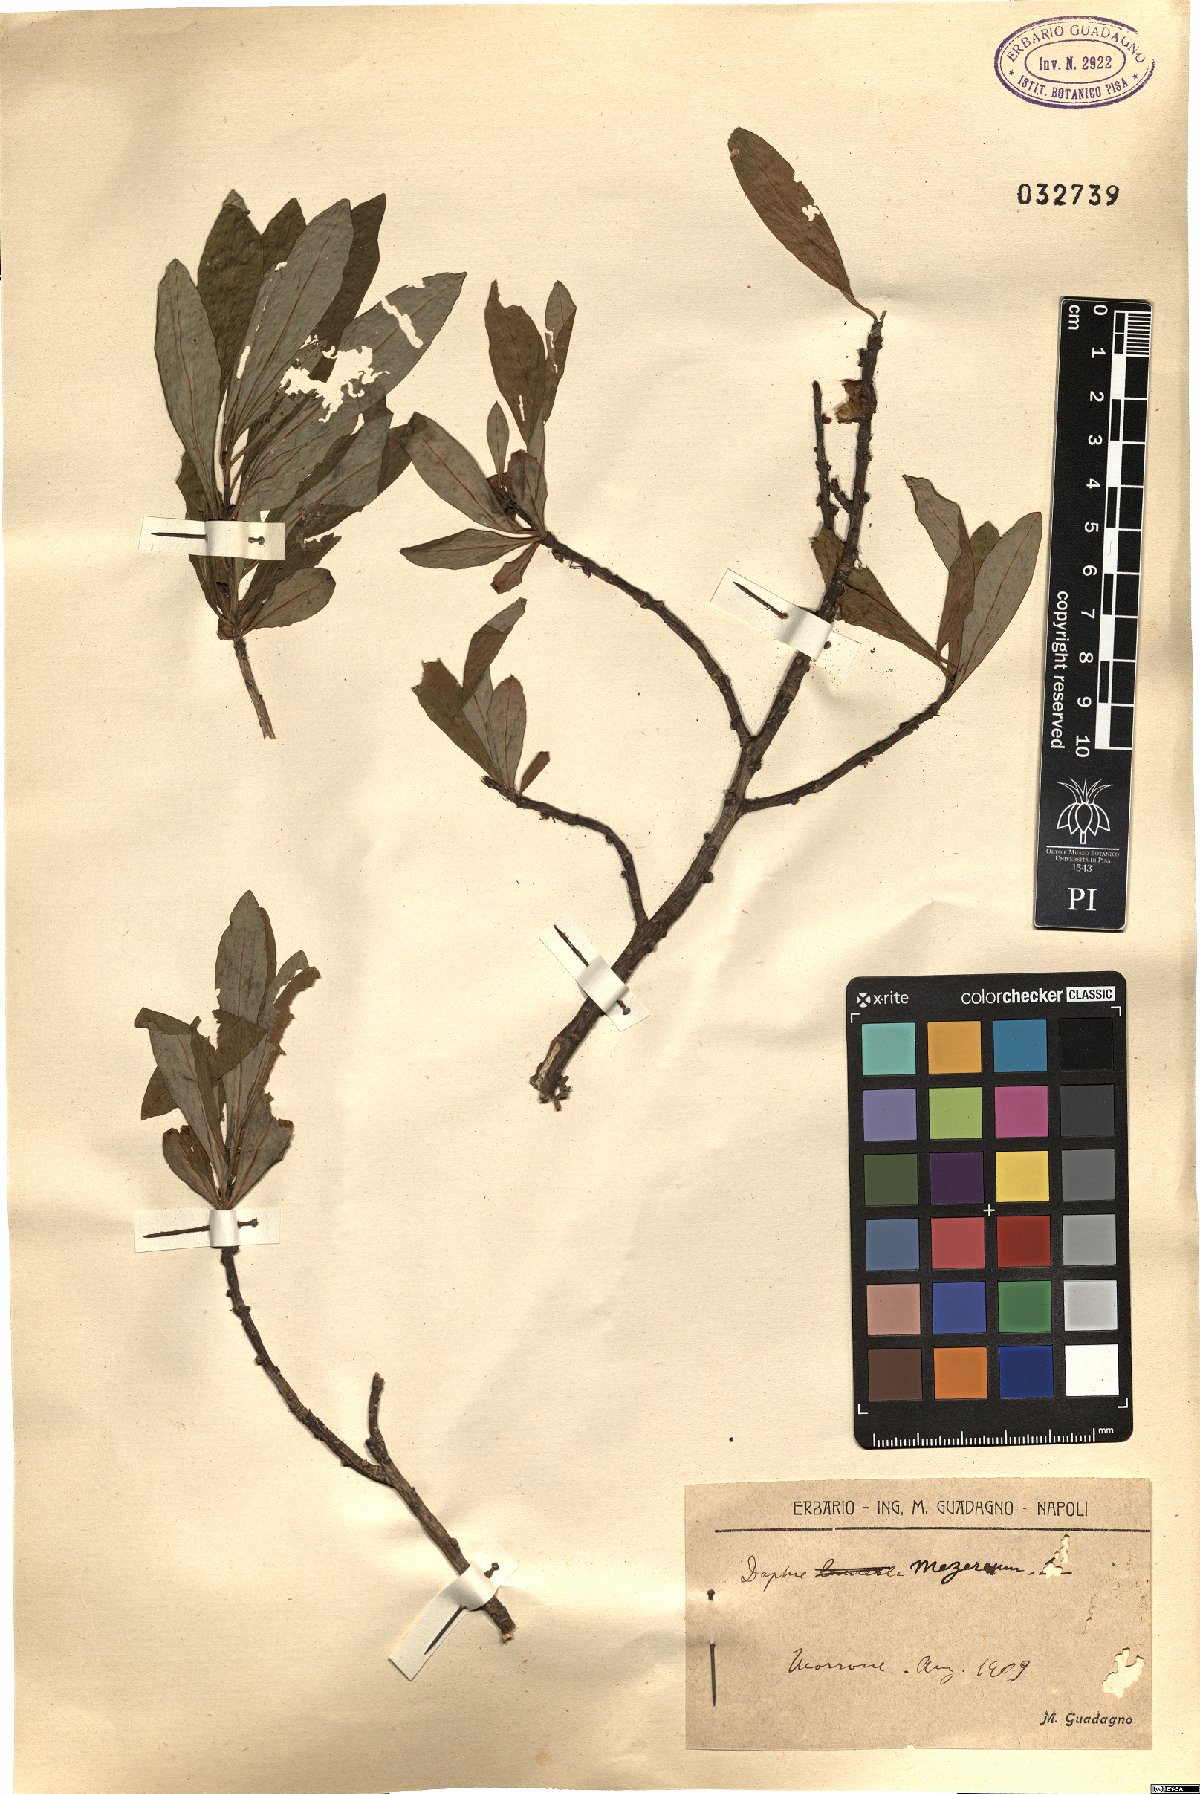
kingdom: Plantae
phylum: Tracheophyta
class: Magnoliopsida
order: Malvales
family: Thymelaeaceae
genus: Daphne
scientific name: Daphne mezereum
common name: Mezereon
